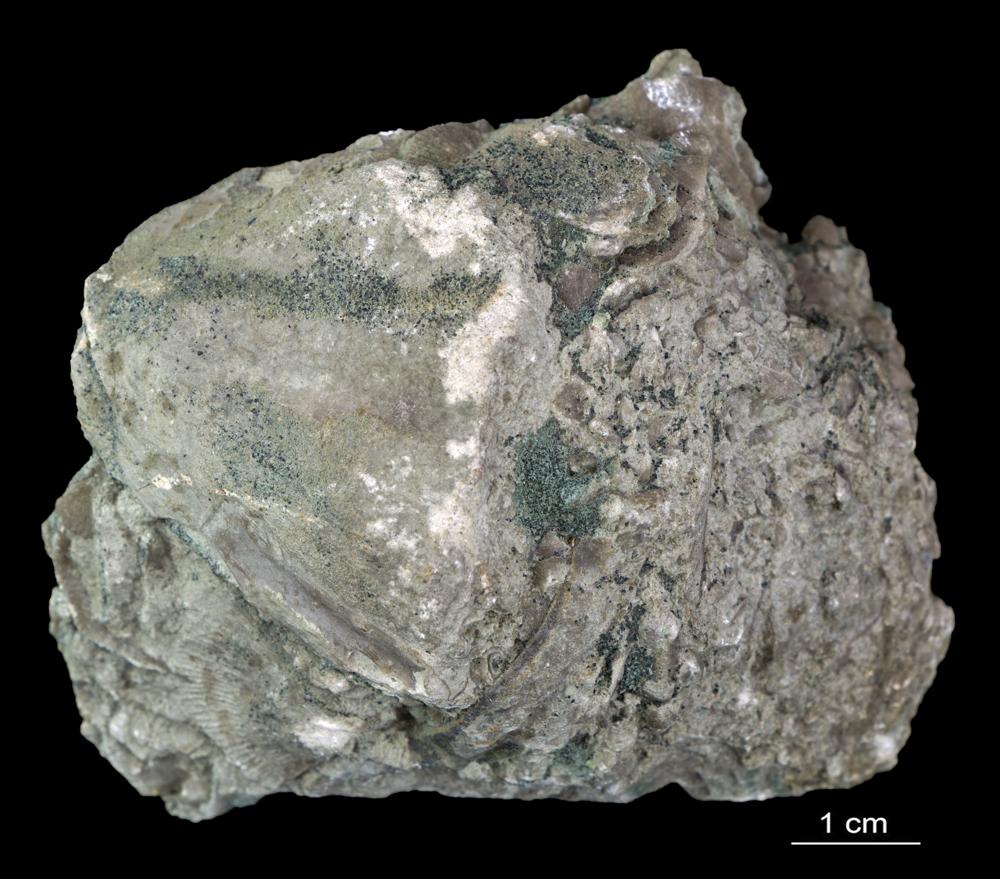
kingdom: Animalia
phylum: Arthropoda
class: Trilobita
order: Asaphida
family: Asaphidae
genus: Megistaspis
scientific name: Megistaspis
